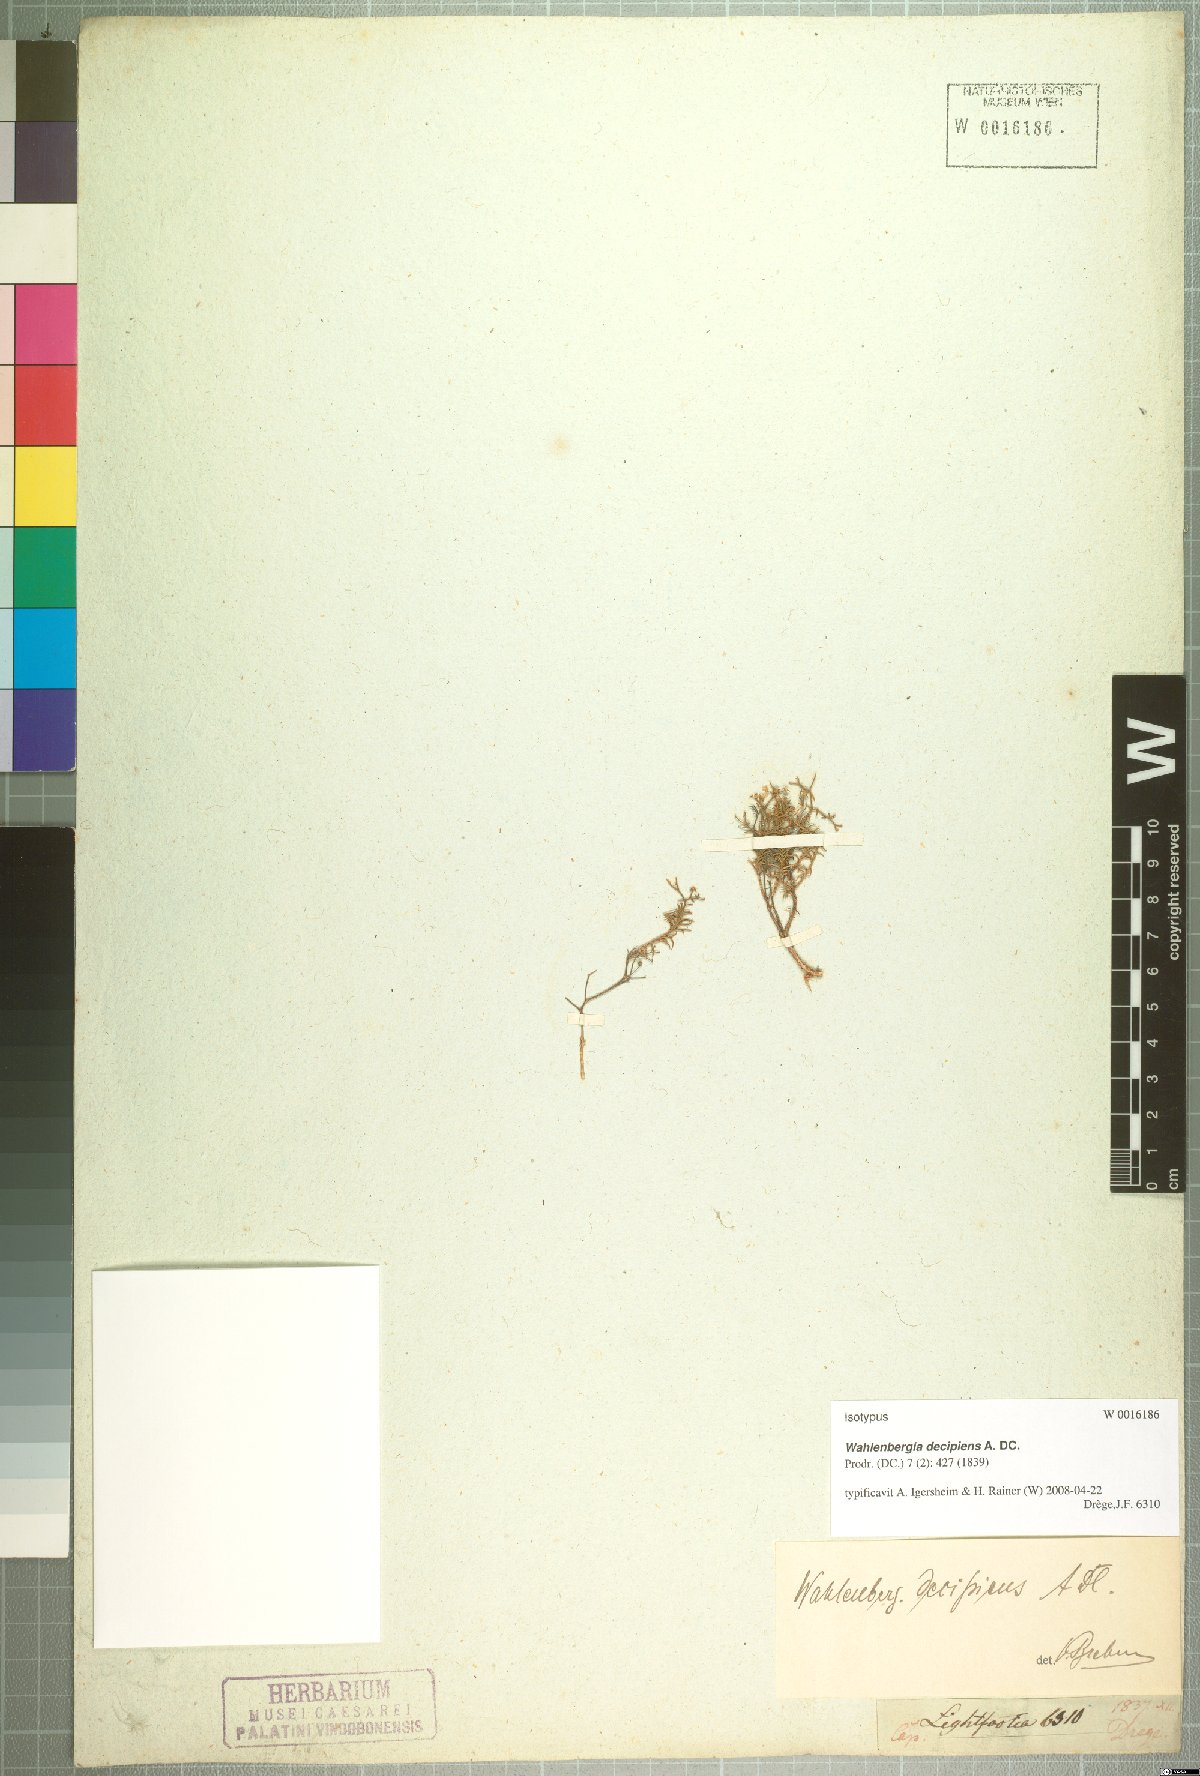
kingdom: Plantae
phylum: Tracheophyta
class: Magnoliopsida
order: Asterales
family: Campanulaceae
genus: Wahlenbergia
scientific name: Wahlenbergia decipiens
